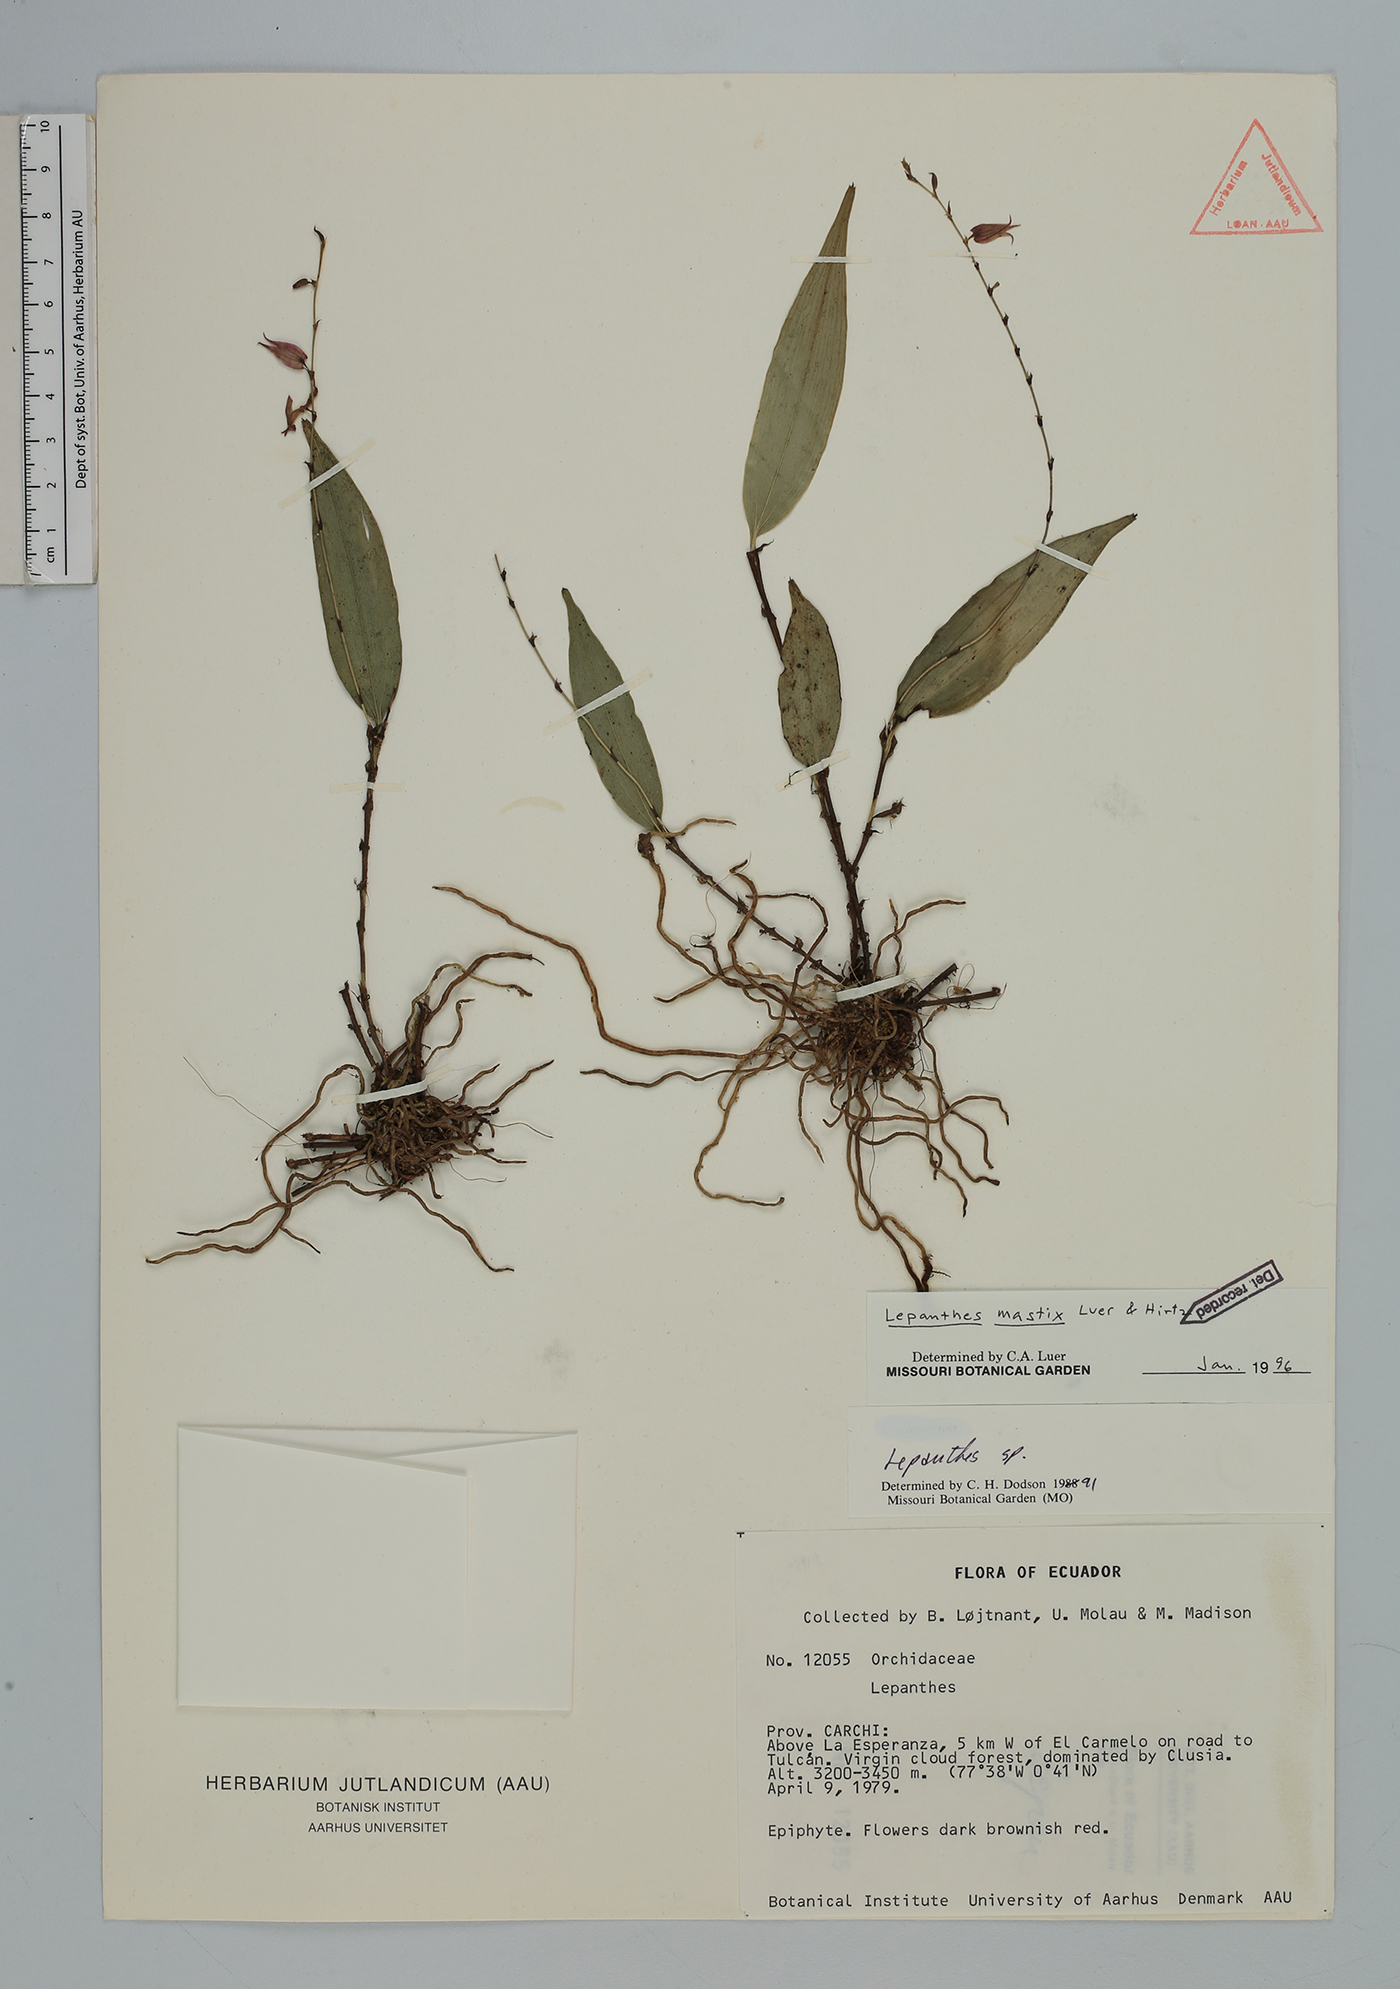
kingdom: Plantae
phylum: Tracheophyta
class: Liliopsida
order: Asparagales
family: Orchidaceae
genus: Lepanthes
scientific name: Lepanthes mastix
